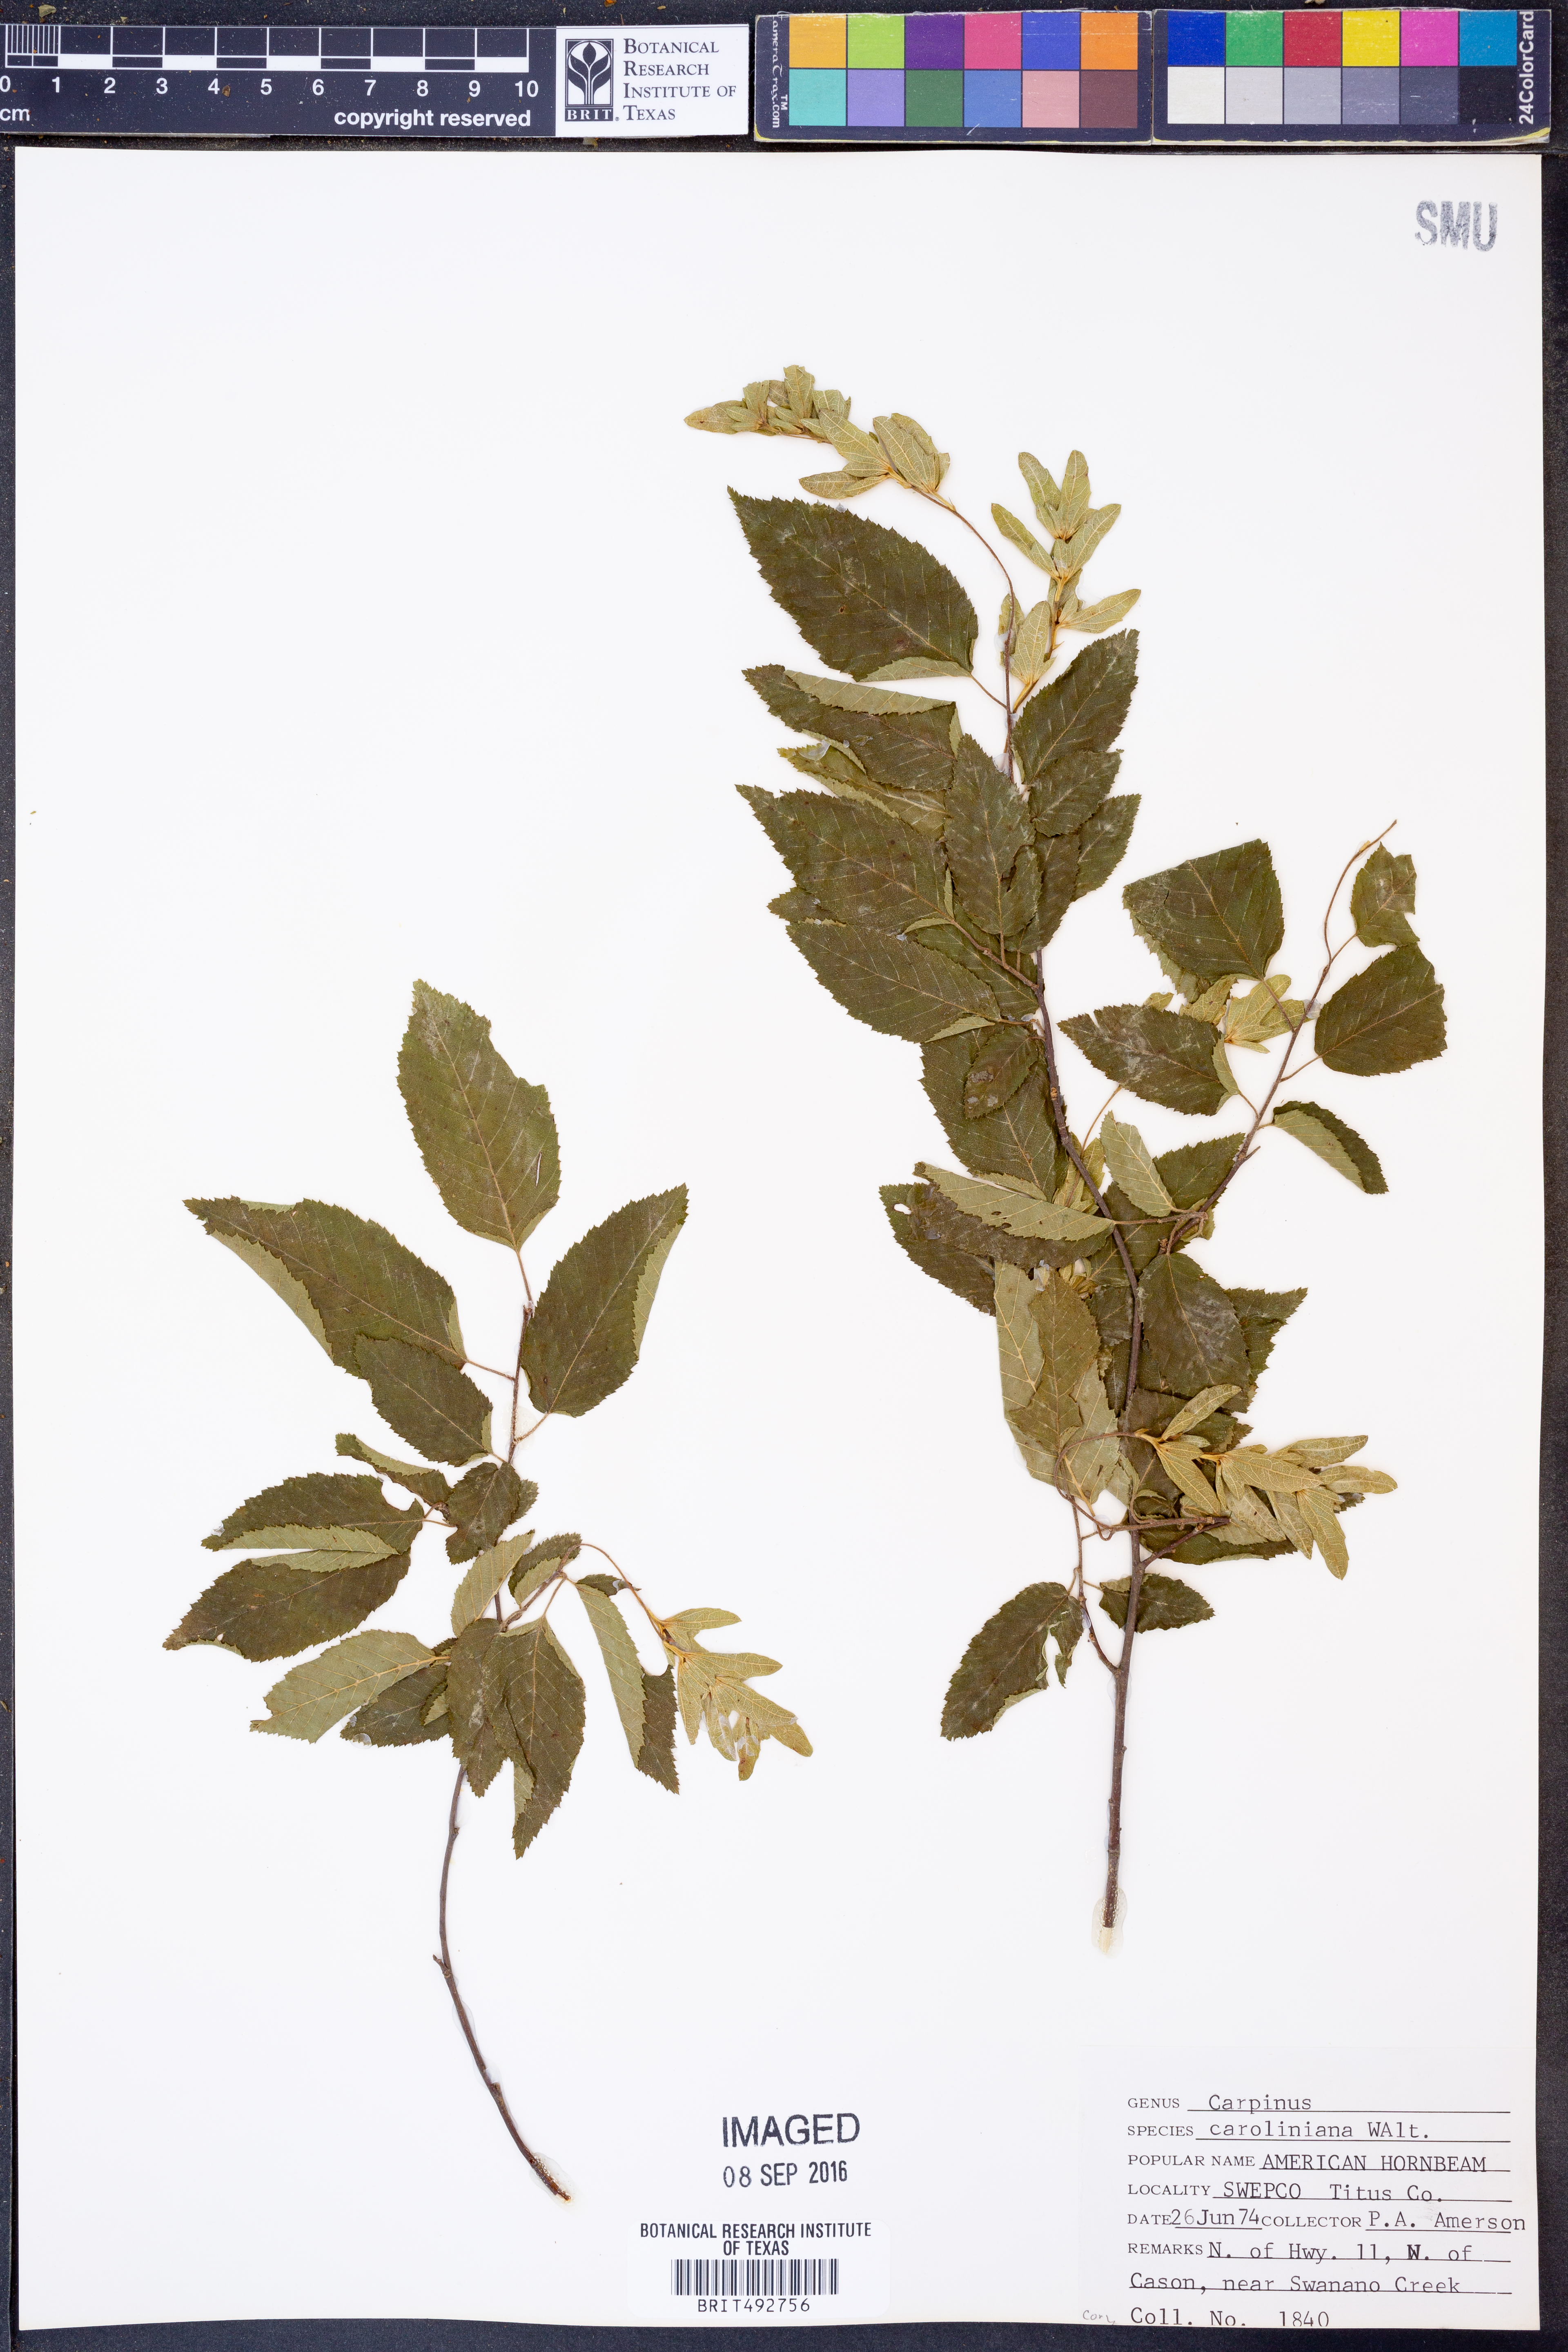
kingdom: Plantae
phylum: Tracheophyta
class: Magnoliopsida
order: Fagales
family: Betulaceae
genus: Carpinus
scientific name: Carpinus caroliniana
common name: American hornbeam
